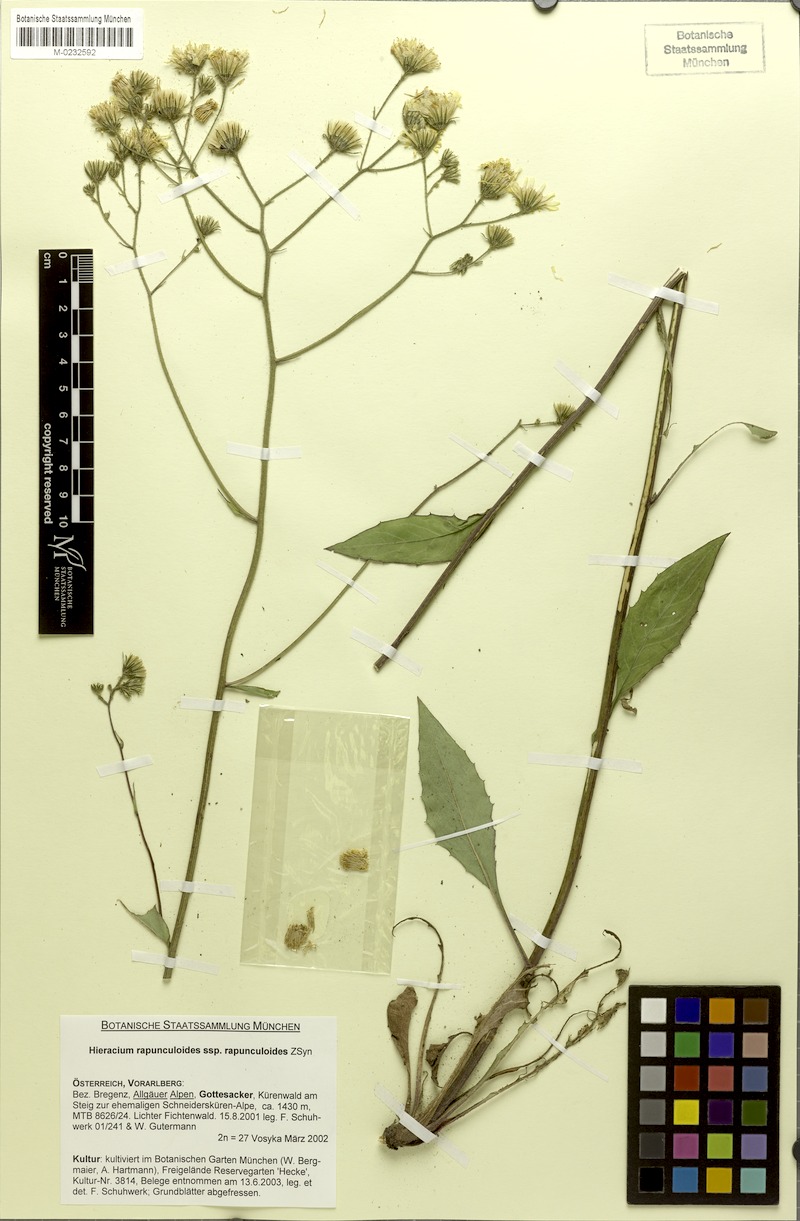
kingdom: Plantae
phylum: Tracheophyta
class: Magnoliopsida
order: Asterales
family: Asteraceae
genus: Hieracium
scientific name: Hieracium rapunculoides
